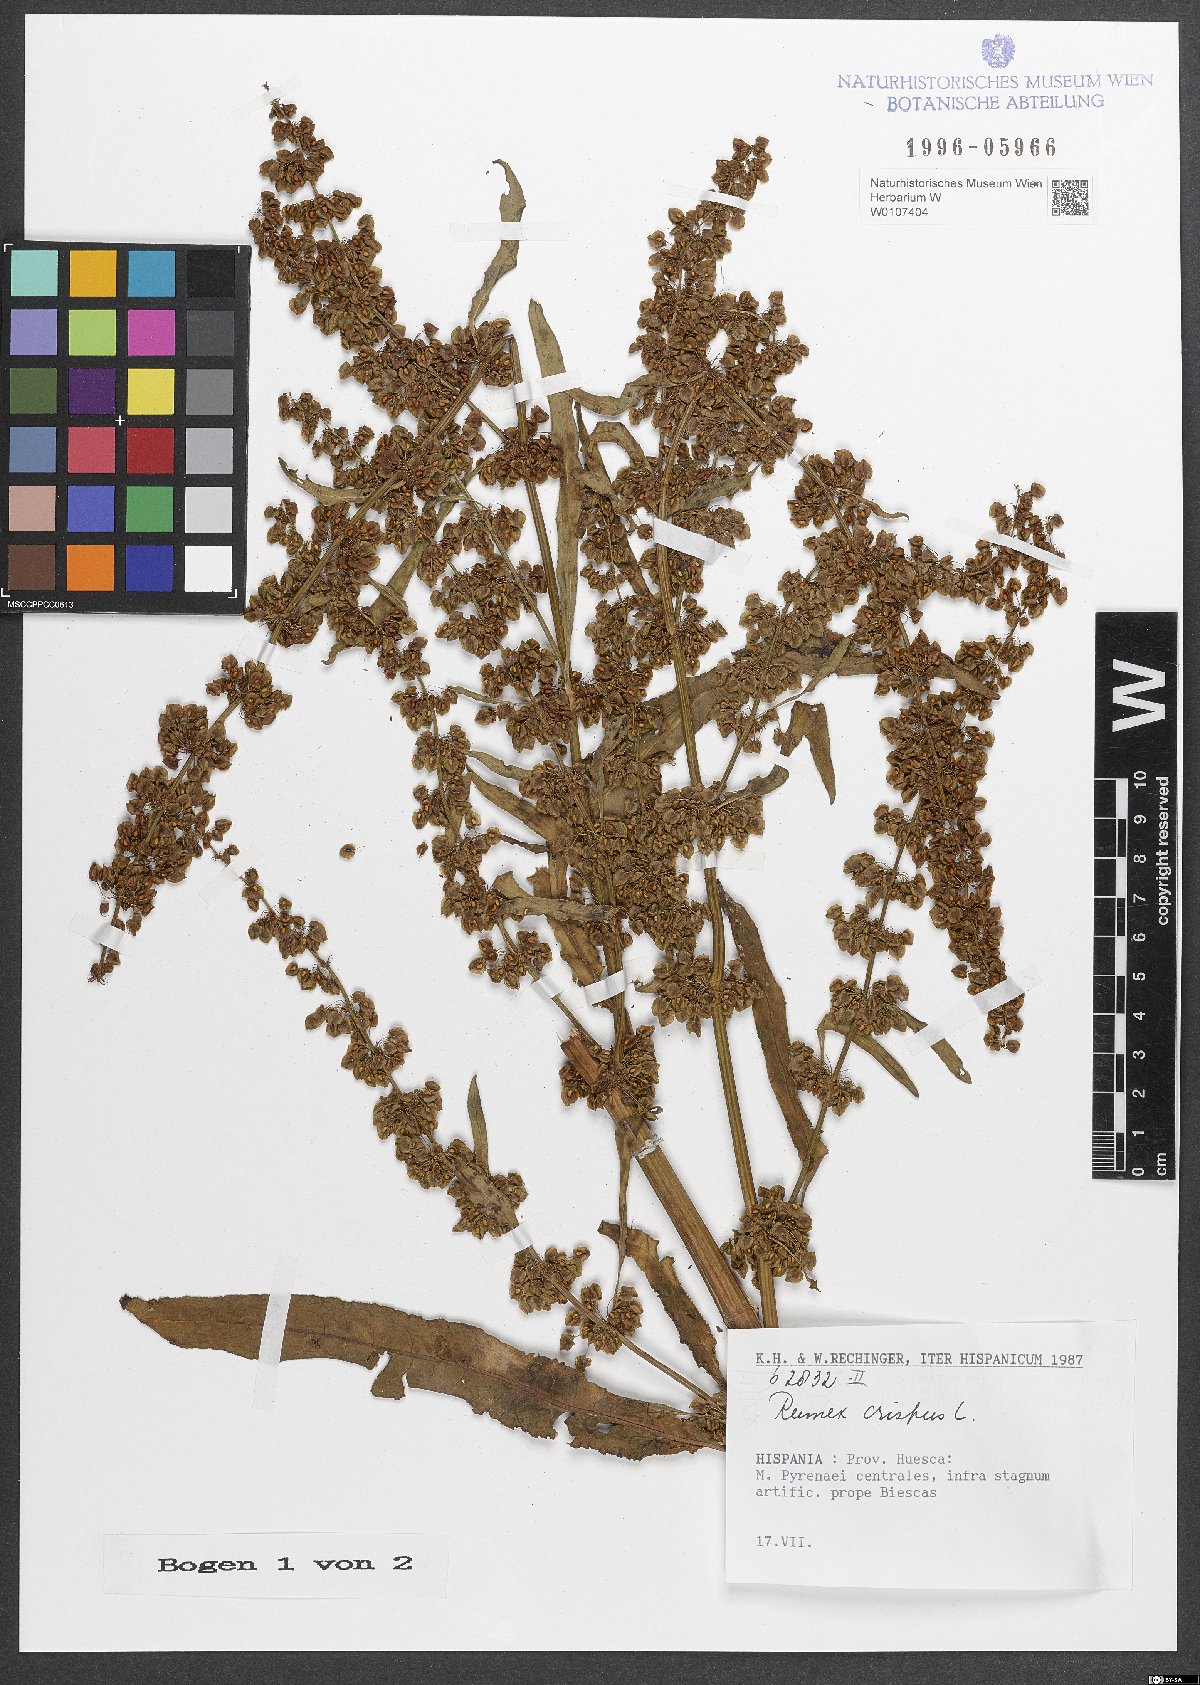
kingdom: Plantae
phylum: Tracheophyta
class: Magnoliopsida
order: Caryophyllales
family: Polygonaceae
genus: Rumex
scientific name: Rumex crispus
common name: Curled dock
